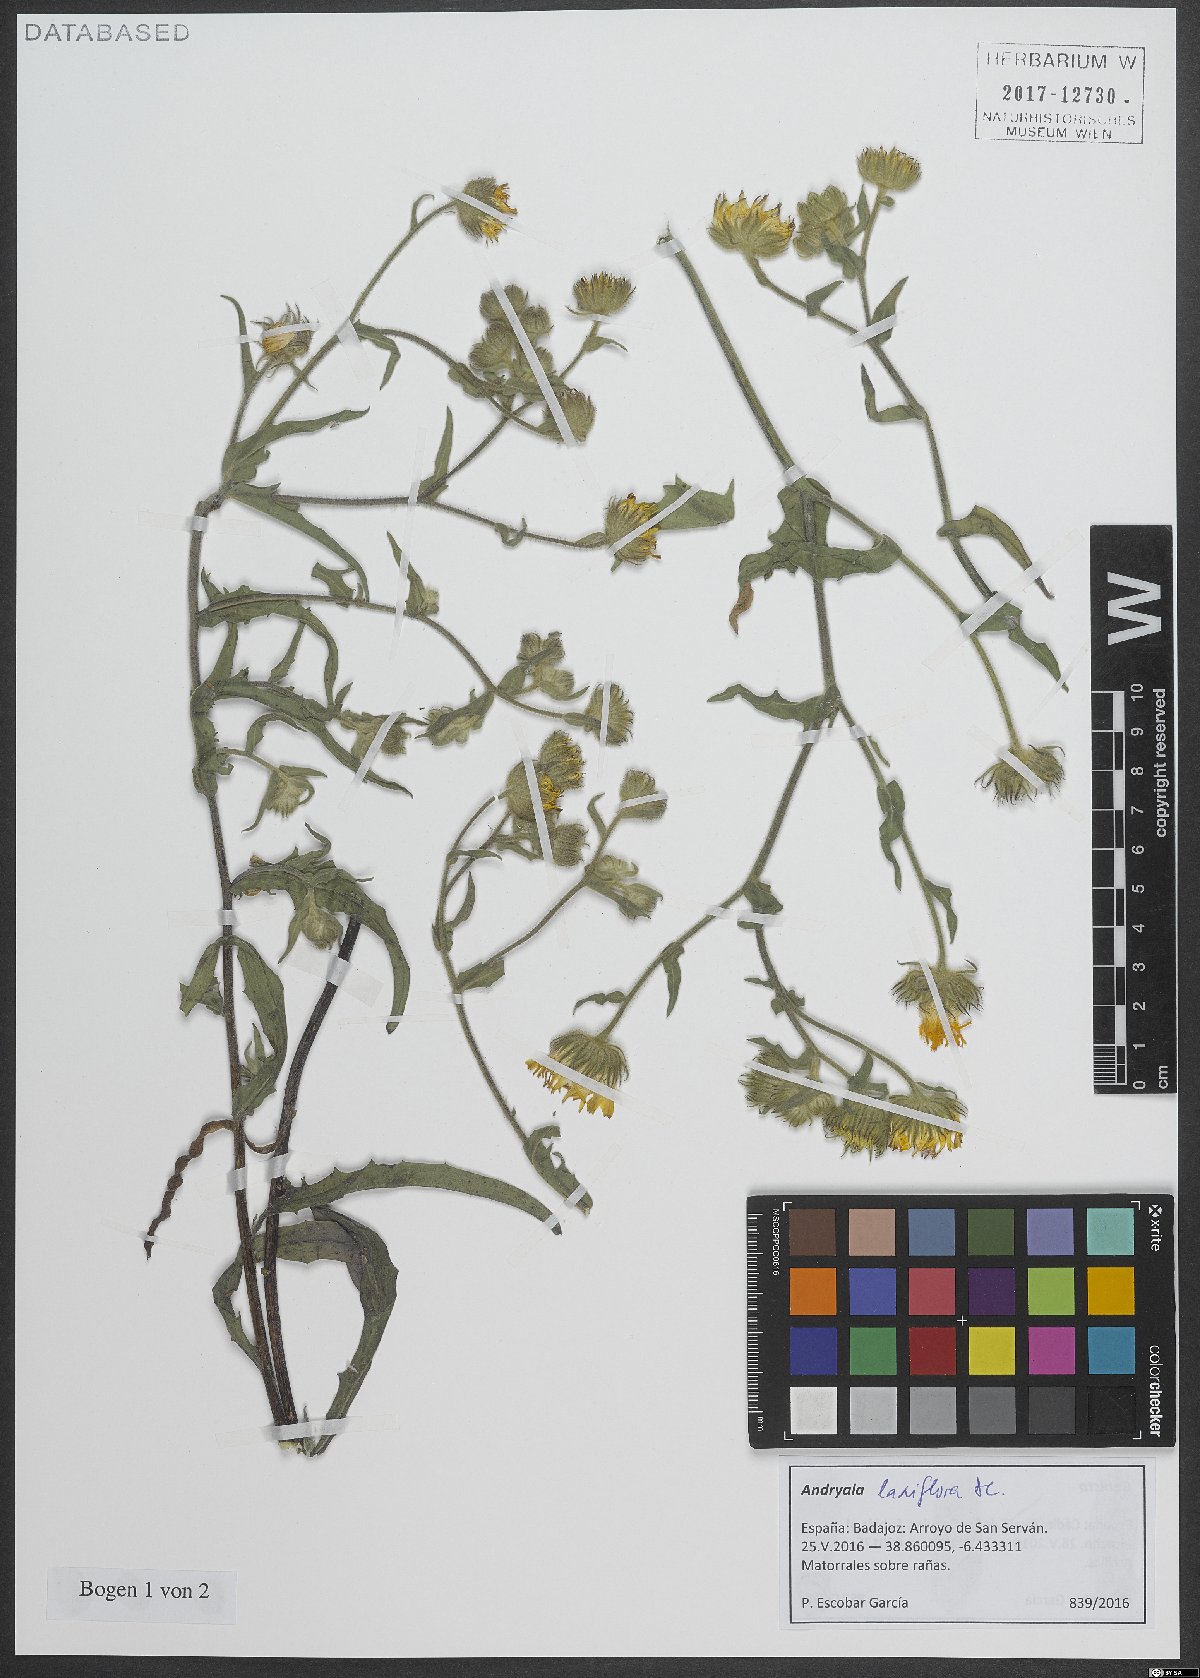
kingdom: Plantae
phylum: Tracheophyta
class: Magnoliopsida
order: Asterales
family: Asteraceae
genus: Andryala
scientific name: Andryala rothia
